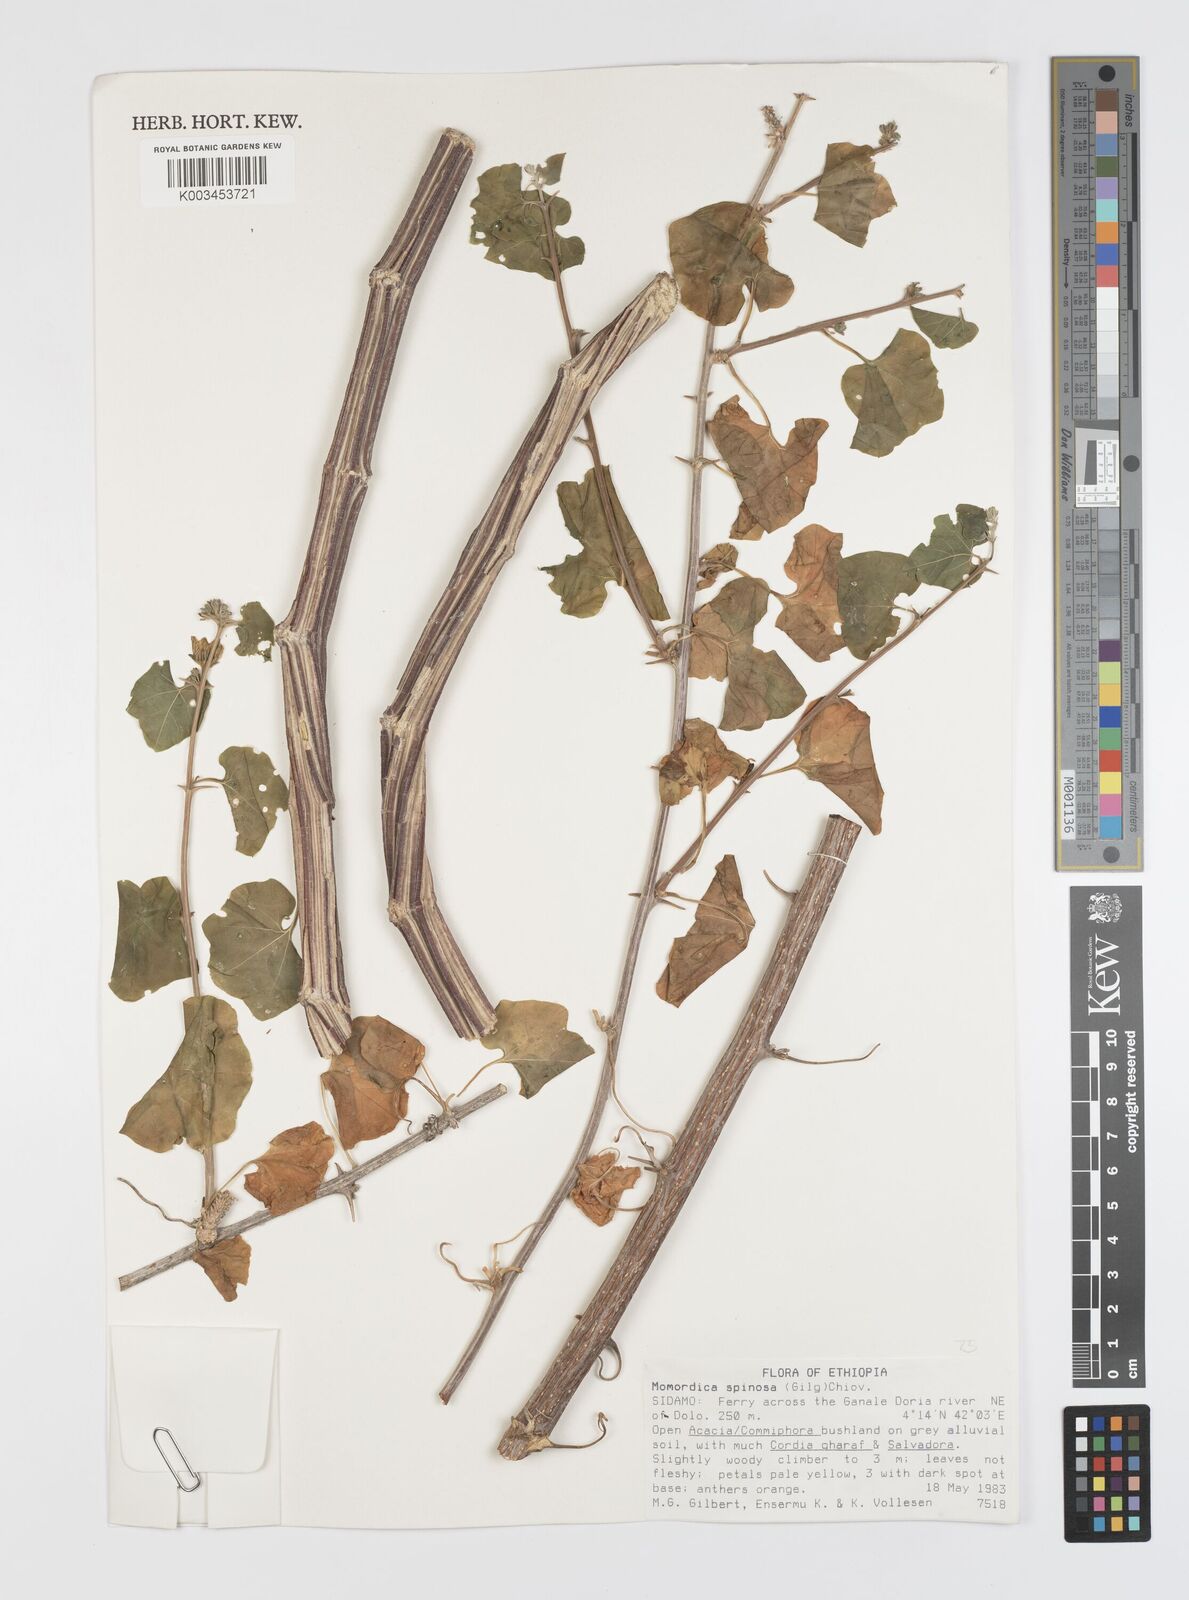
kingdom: Plantae
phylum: Tracheophyta
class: Magnoliopsida
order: Cucurbitales
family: Cucurbitaceae
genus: Momordica
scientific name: Momordica spinosa
